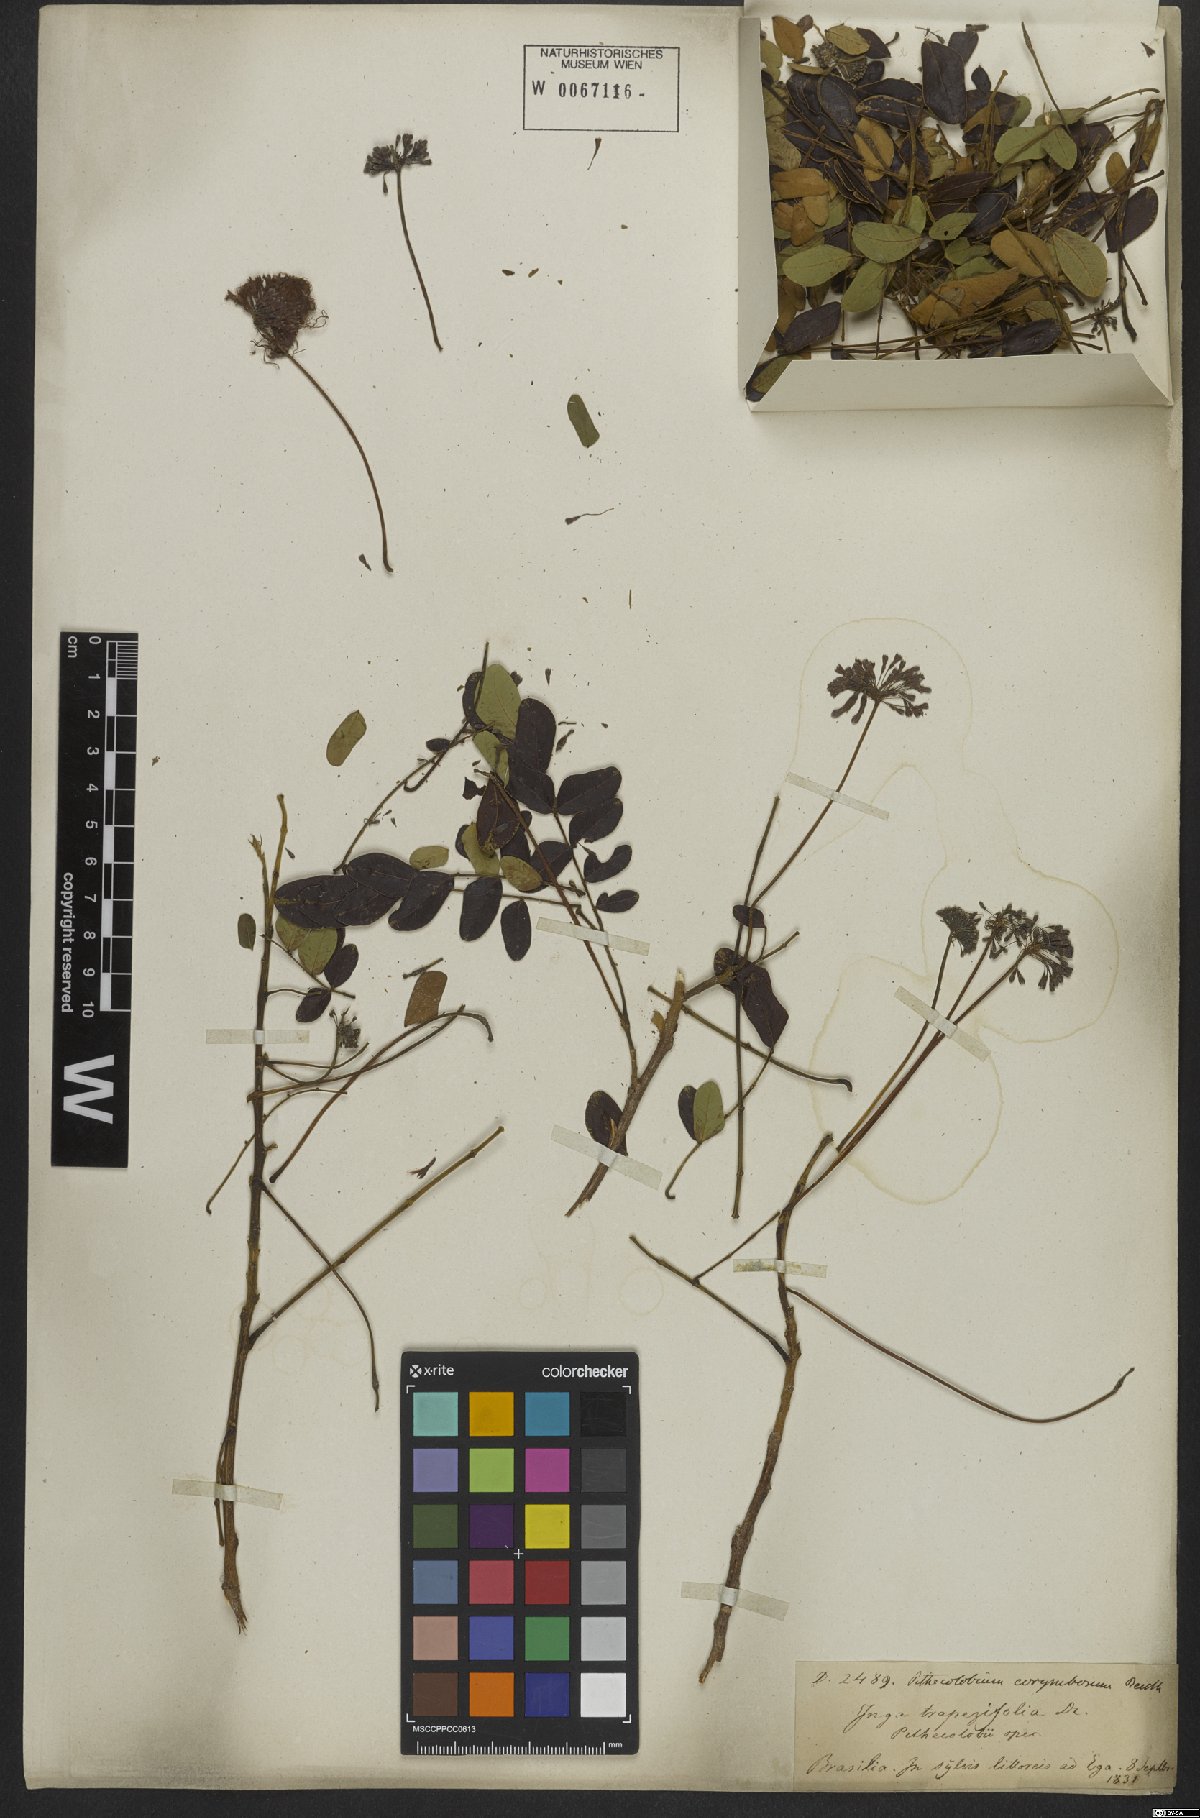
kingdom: Plantae
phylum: Tracheophyta
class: Magnoliopsida
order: Fabales
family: Fabaceae
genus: Hydrochorea
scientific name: Hydrochorea corymbosa
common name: Swamp manariballi
